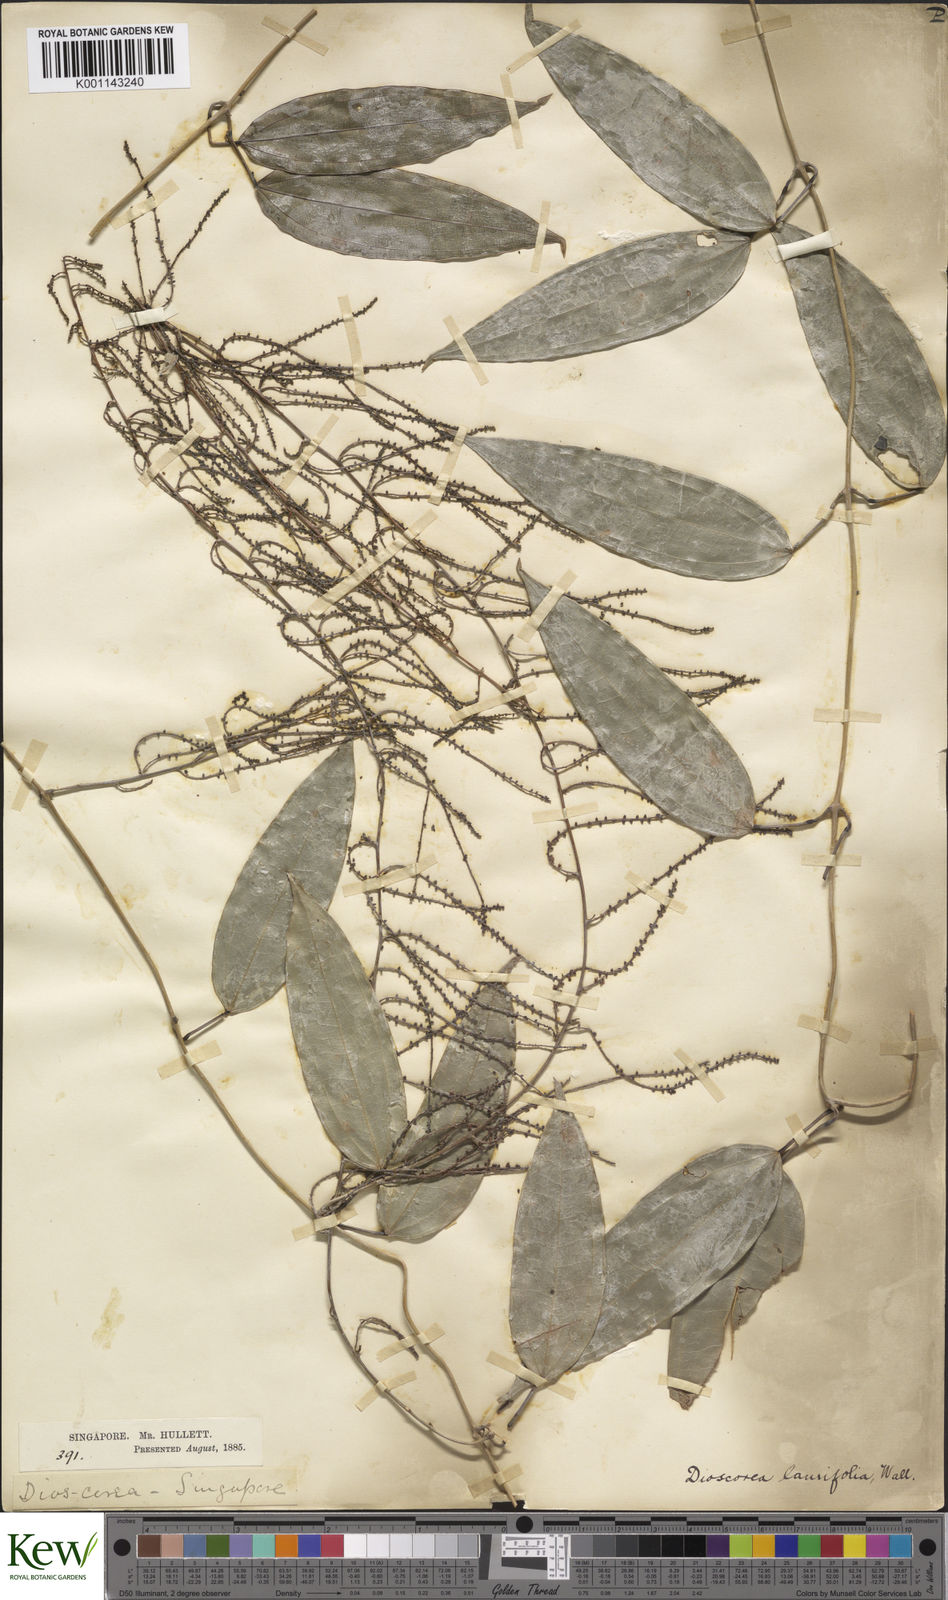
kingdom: Plantae
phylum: Tracheophyta
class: Liliopsida
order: Dioscoreales
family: Dioscoreaceae
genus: Dioscorea
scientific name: Dioscorea laurifolia
